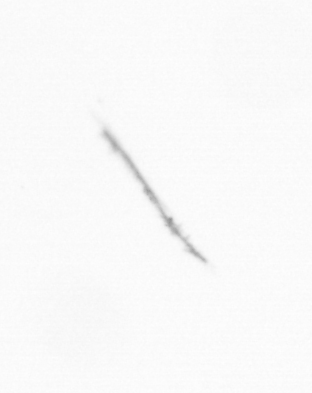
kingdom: Chromista
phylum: Ochrophyta
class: Bacillariophyceae
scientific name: Bacillariophyceae
